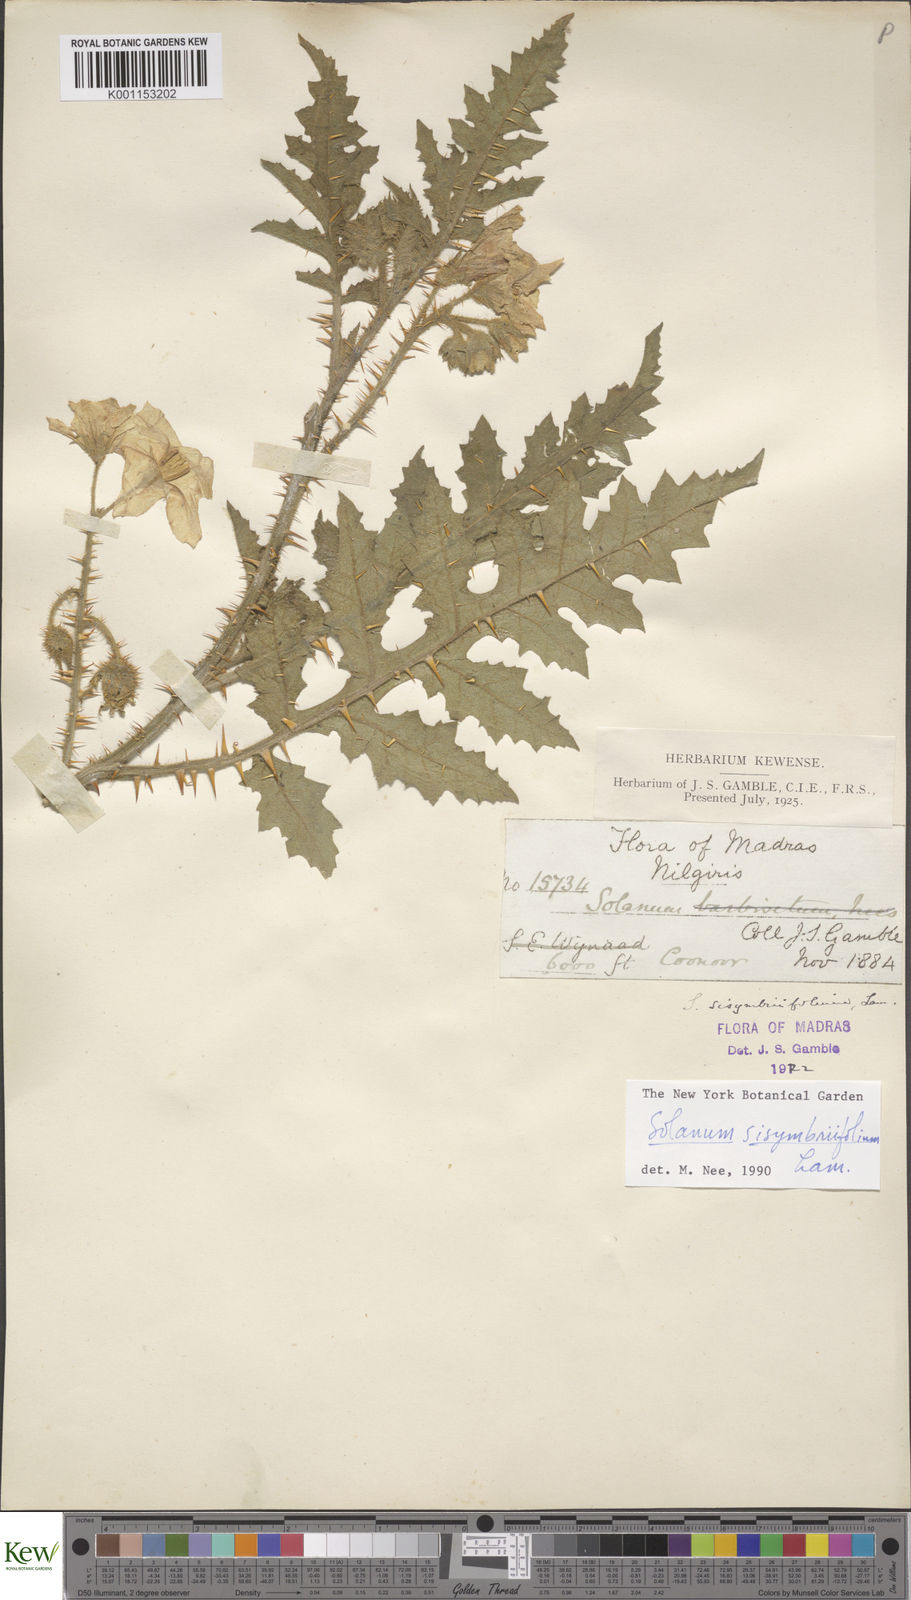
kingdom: Plantae
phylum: Tracheophyta
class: Magnoliopsida
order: Solanales
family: Solanaceae
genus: Solanum
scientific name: Solanum sisymbriifolium
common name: Red buffalo-bur
